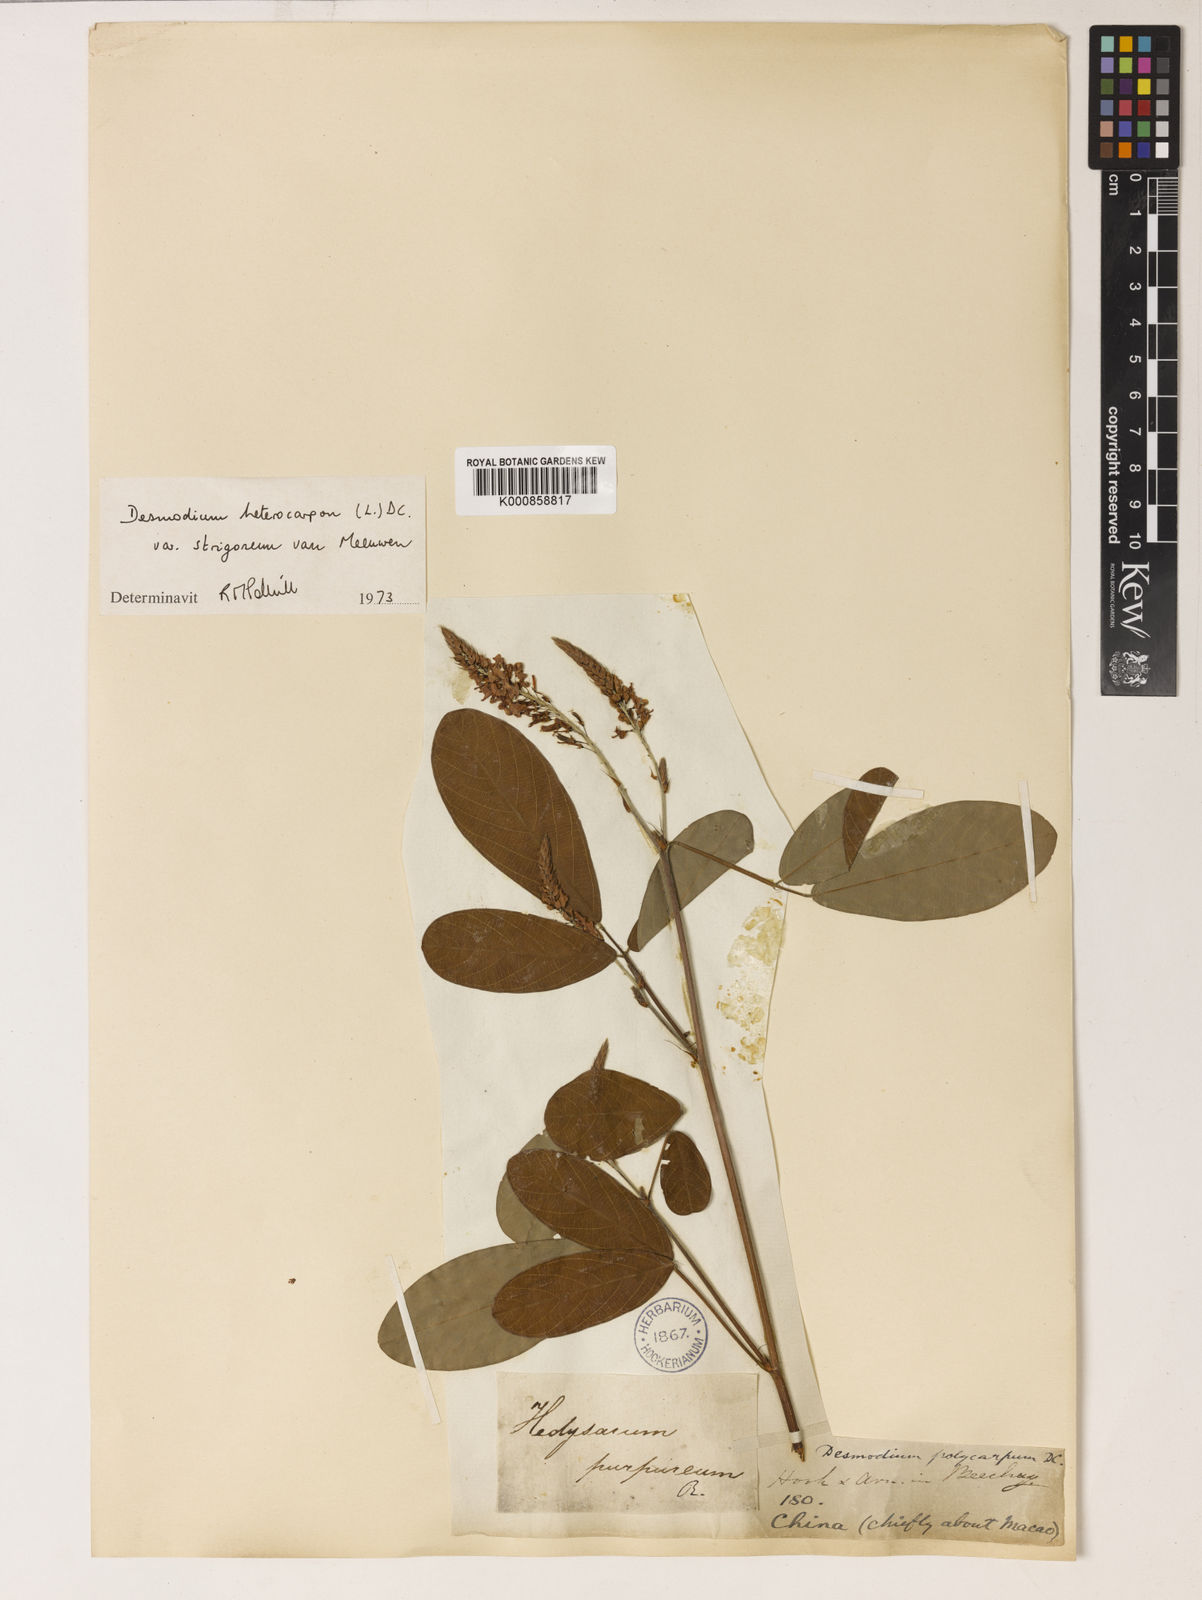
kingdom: Plantae
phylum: Tracheophyta
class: Magnoliopsida
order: Fabales
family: Fabaceae
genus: Grona
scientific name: Grona heterocarpos
